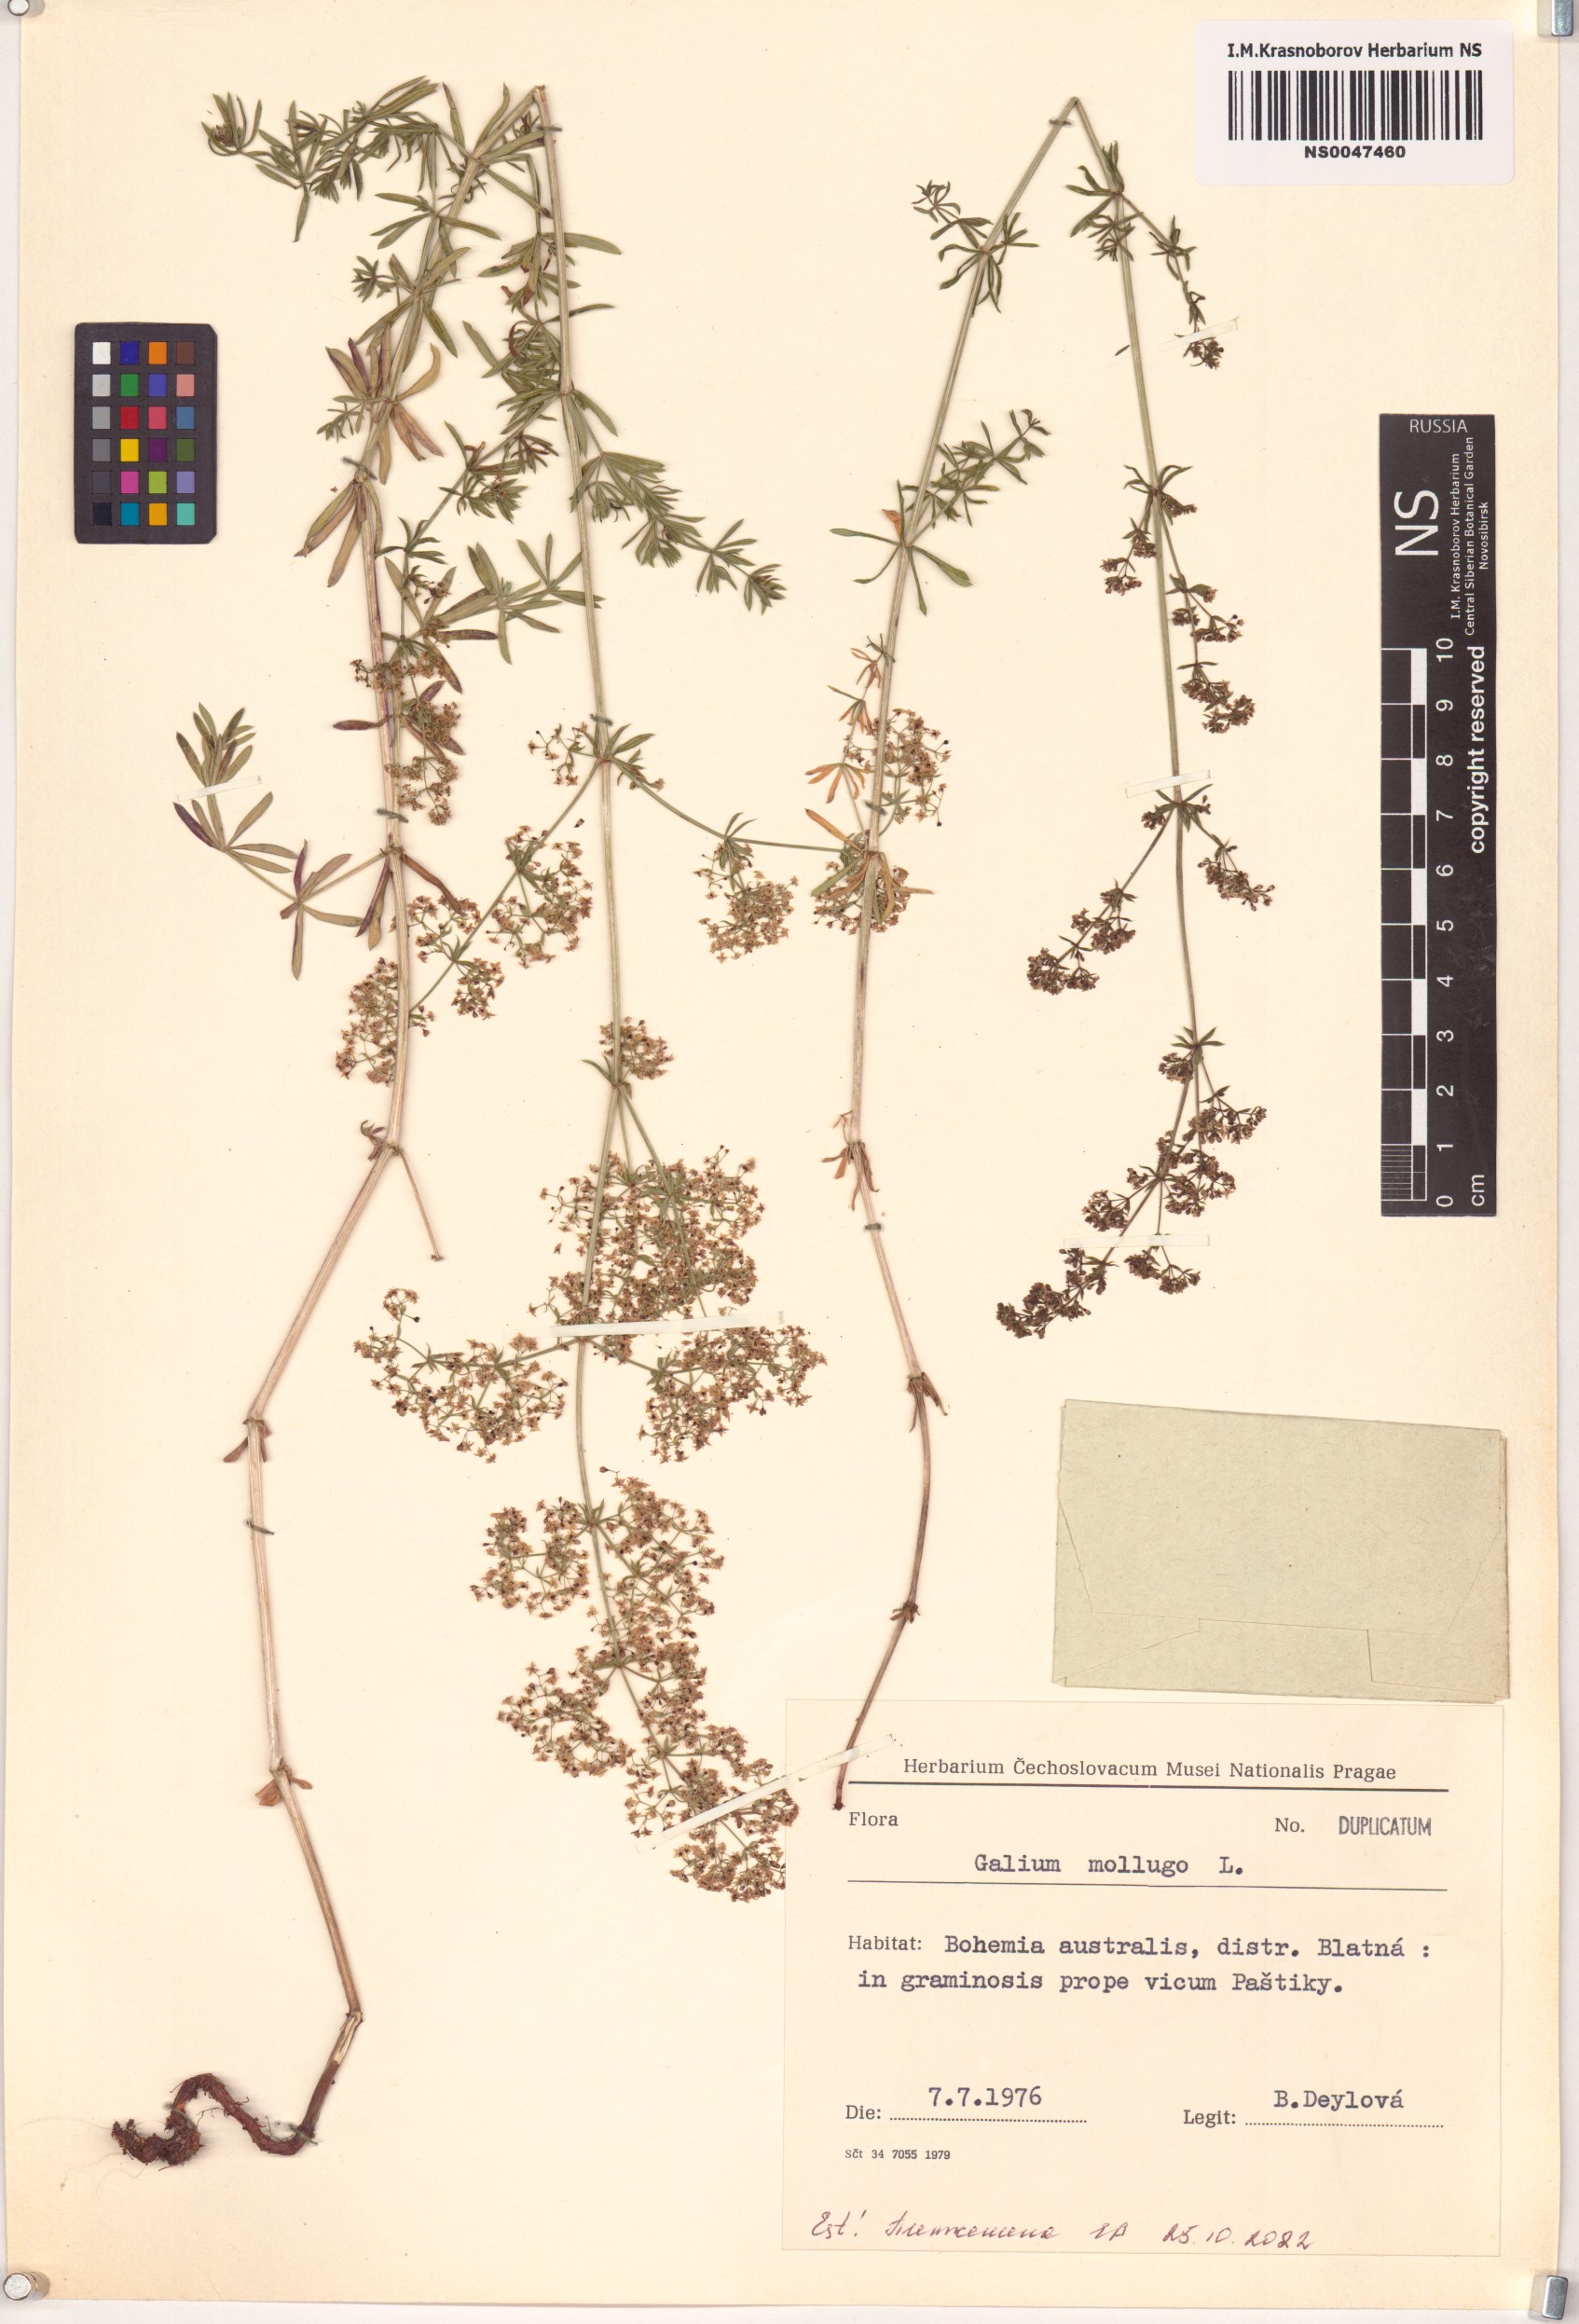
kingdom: Plantae
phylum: Tracheophyta
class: Magnoliopsida
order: Gentianales
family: Rubiaceae
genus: Galium
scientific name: Galium mollugo
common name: Hedge bedstraw
